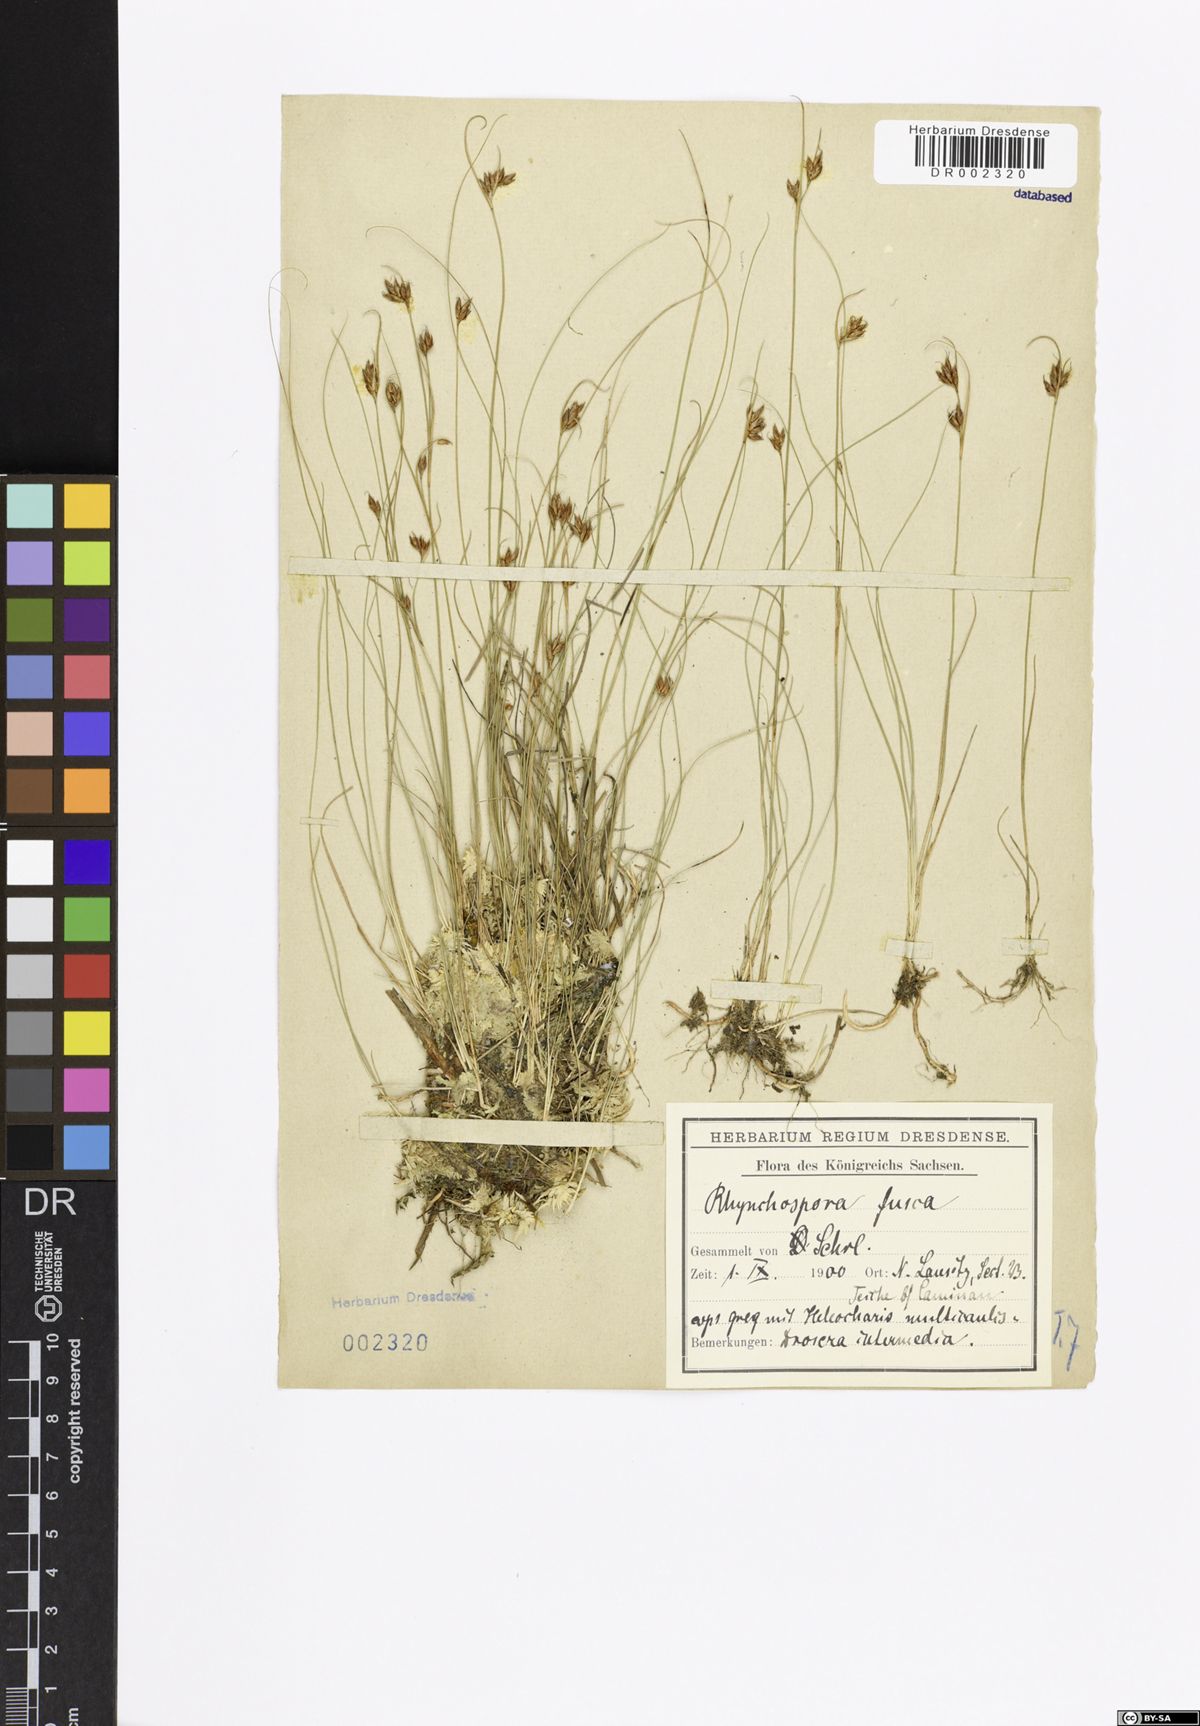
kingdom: Plantae
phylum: Tracheophyta
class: Liliopsida
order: Poales
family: Cyperaceae
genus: Rhynchospora
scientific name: Rhynchospora fusca
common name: Brown beak-sedge
